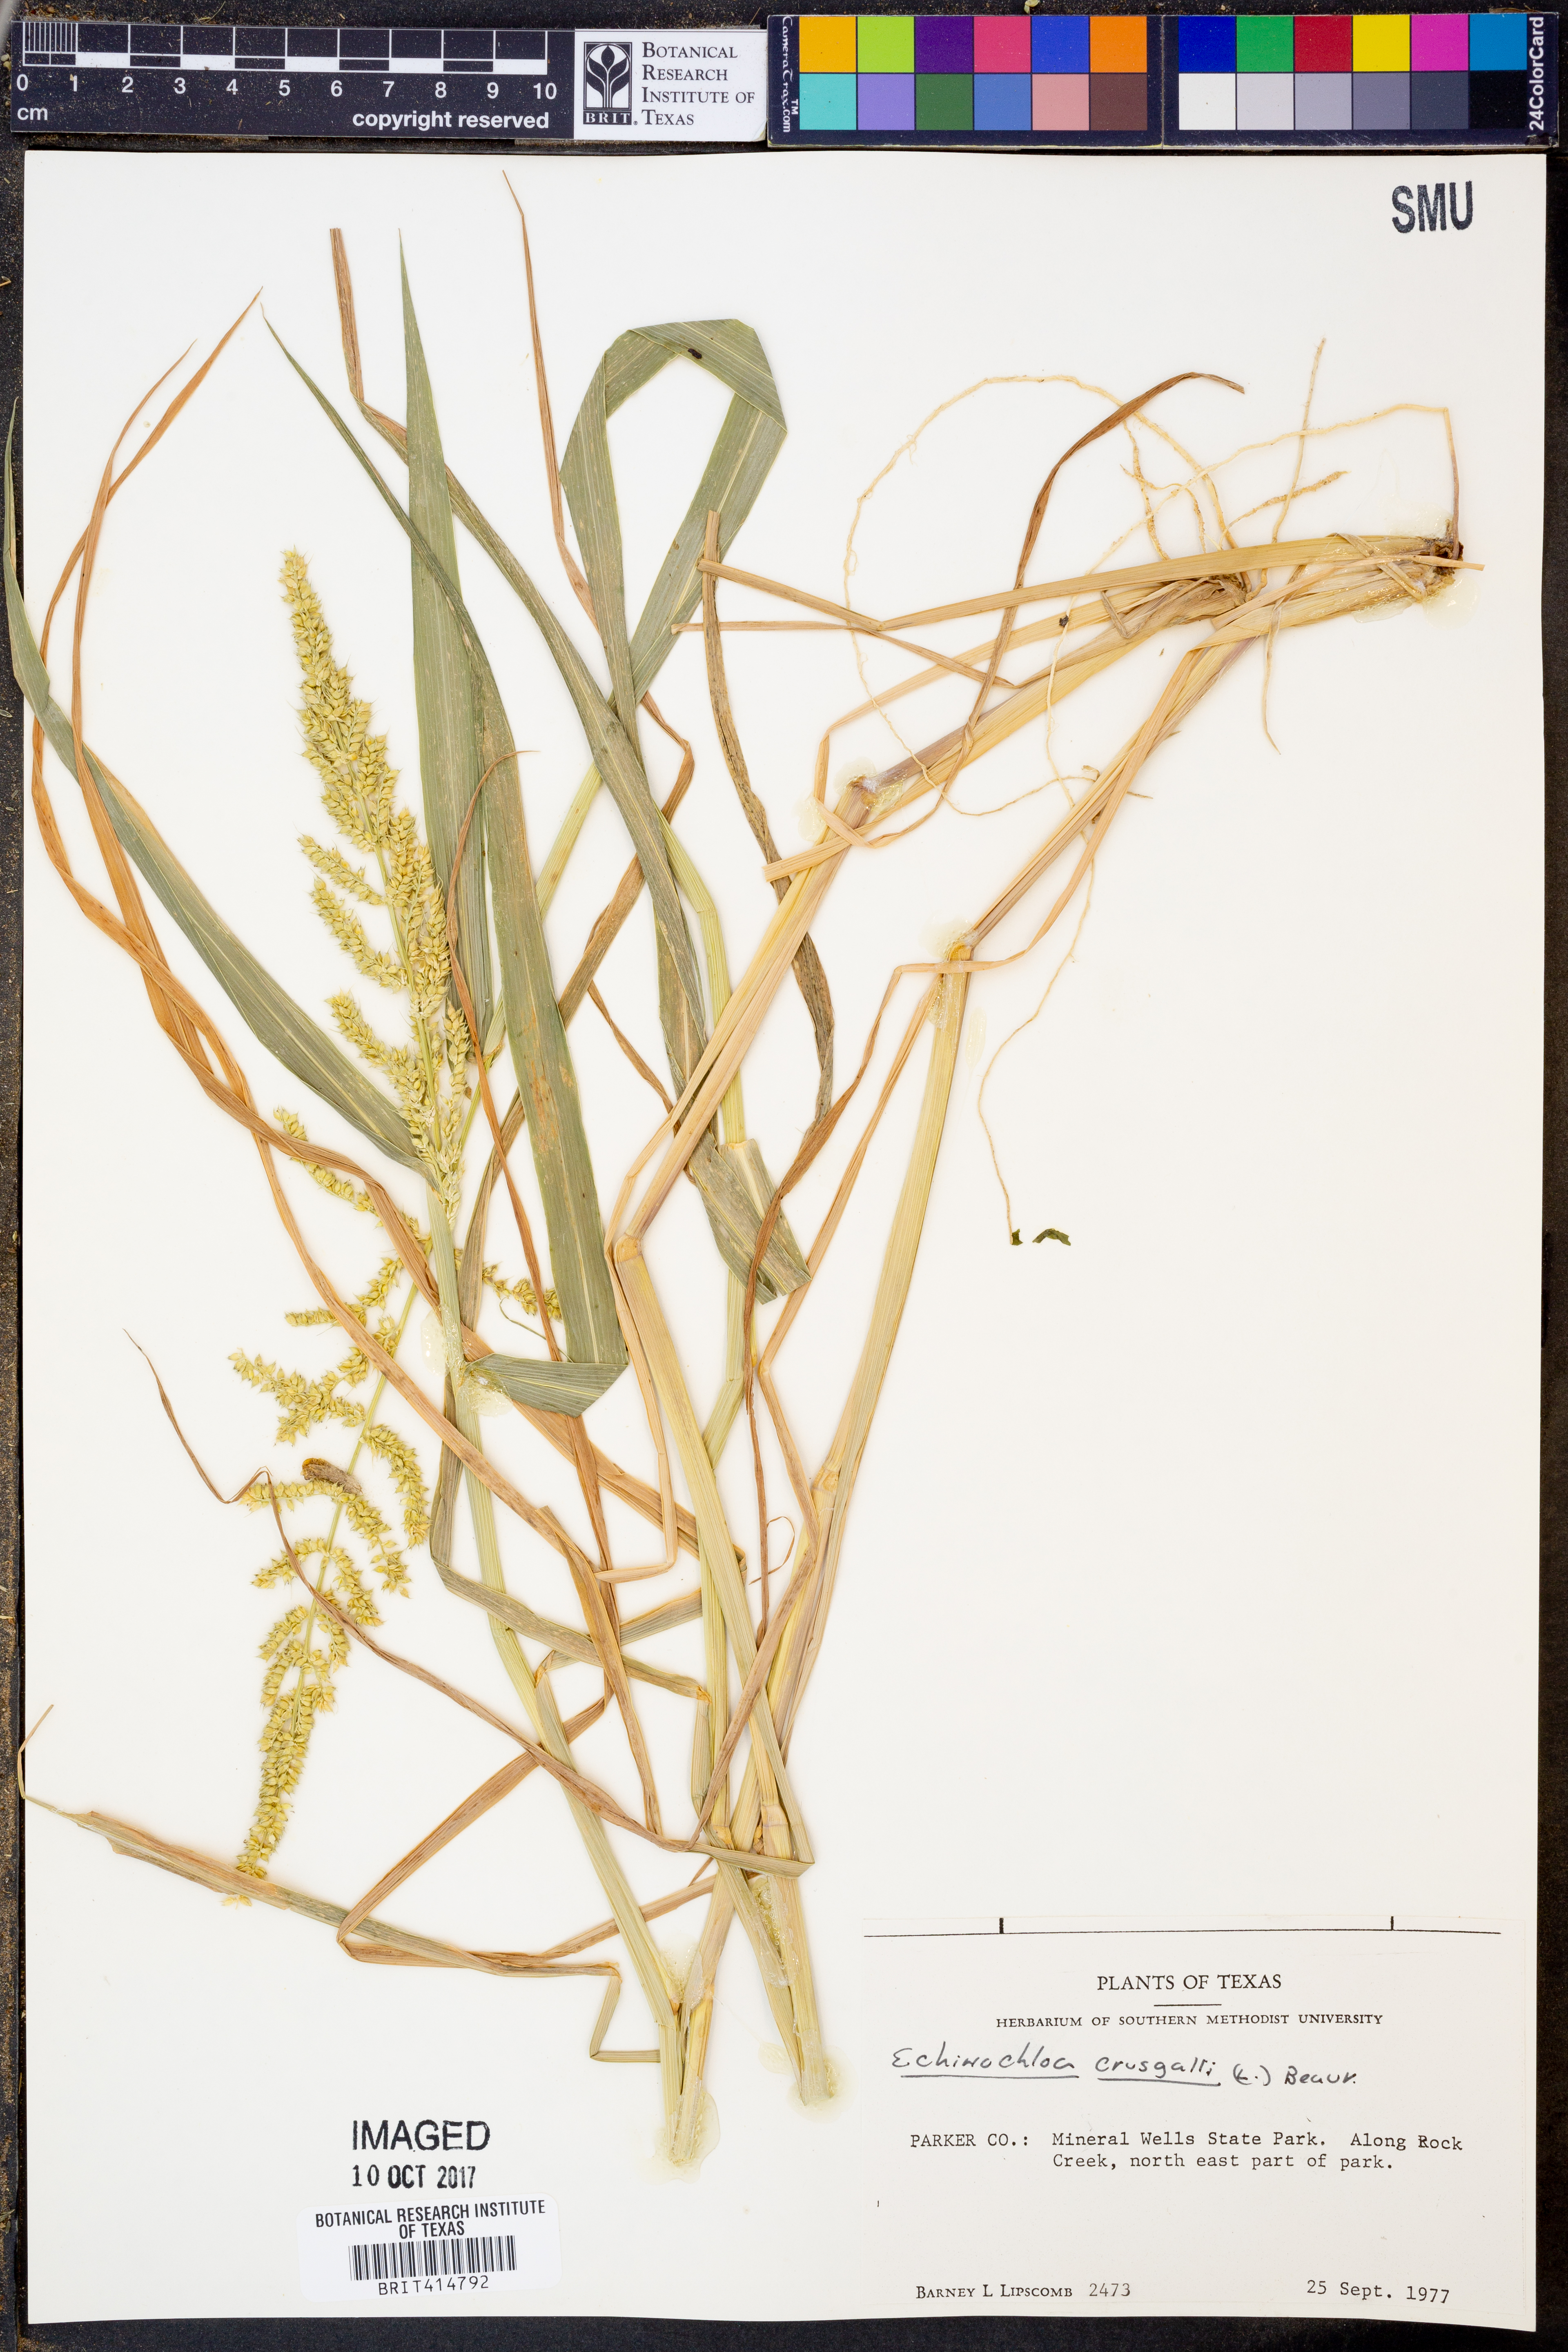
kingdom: Plantae
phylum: Tracheophyta
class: Liliopsida
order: Poales
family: Poaceae
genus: Echinochloa
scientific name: Echinochloa crus-galli
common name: Cockspur
